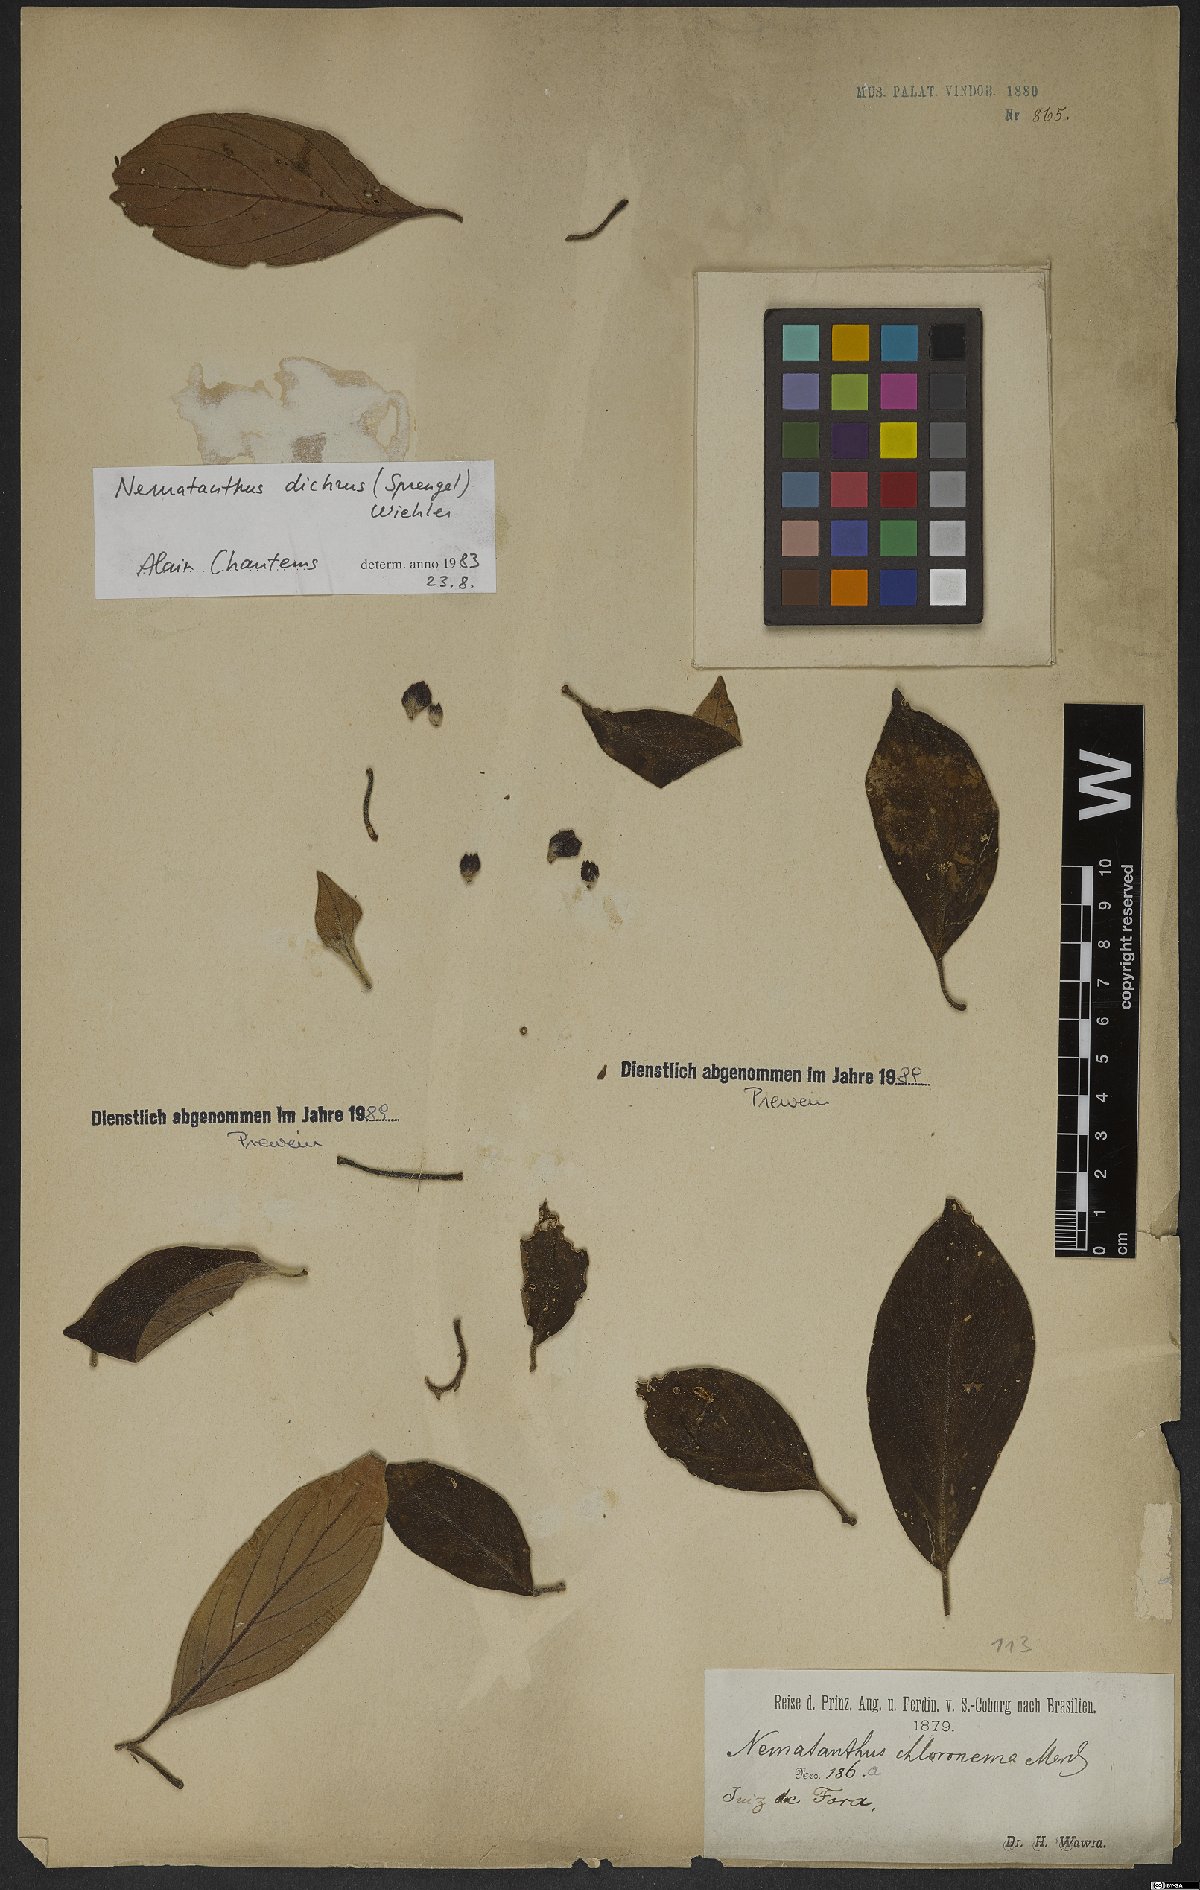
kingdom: Plantae
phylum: Tracheophyta
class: Magnoliopsida
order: Lamiales
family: Gesneriaceae
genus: Nematanthus
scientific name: Nematanthus crassifolius
